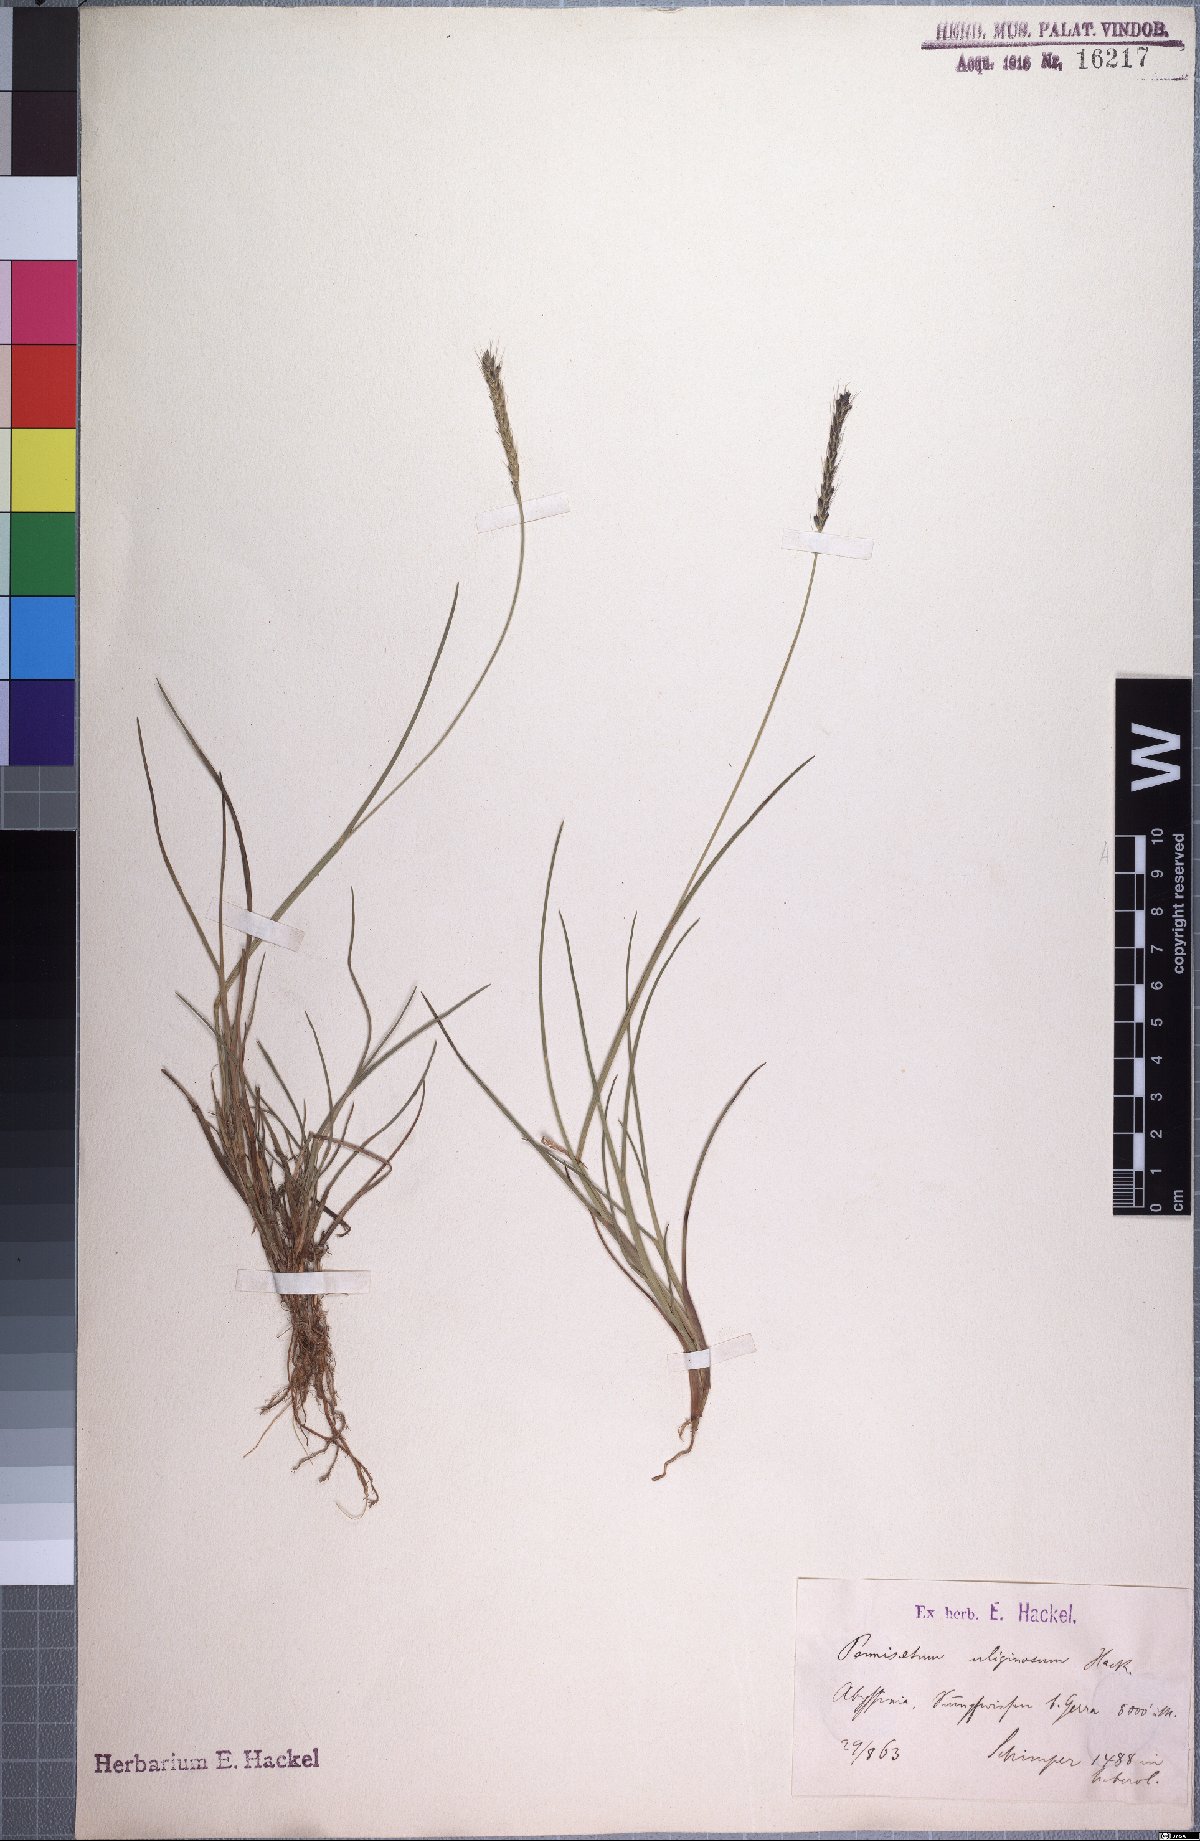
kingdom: Plantae
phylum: Tracheophyta
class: Liliopsida
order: Poales
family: Poaceae
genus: Cenchrus
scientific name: Cenchrus Pennisetum uliginosum
